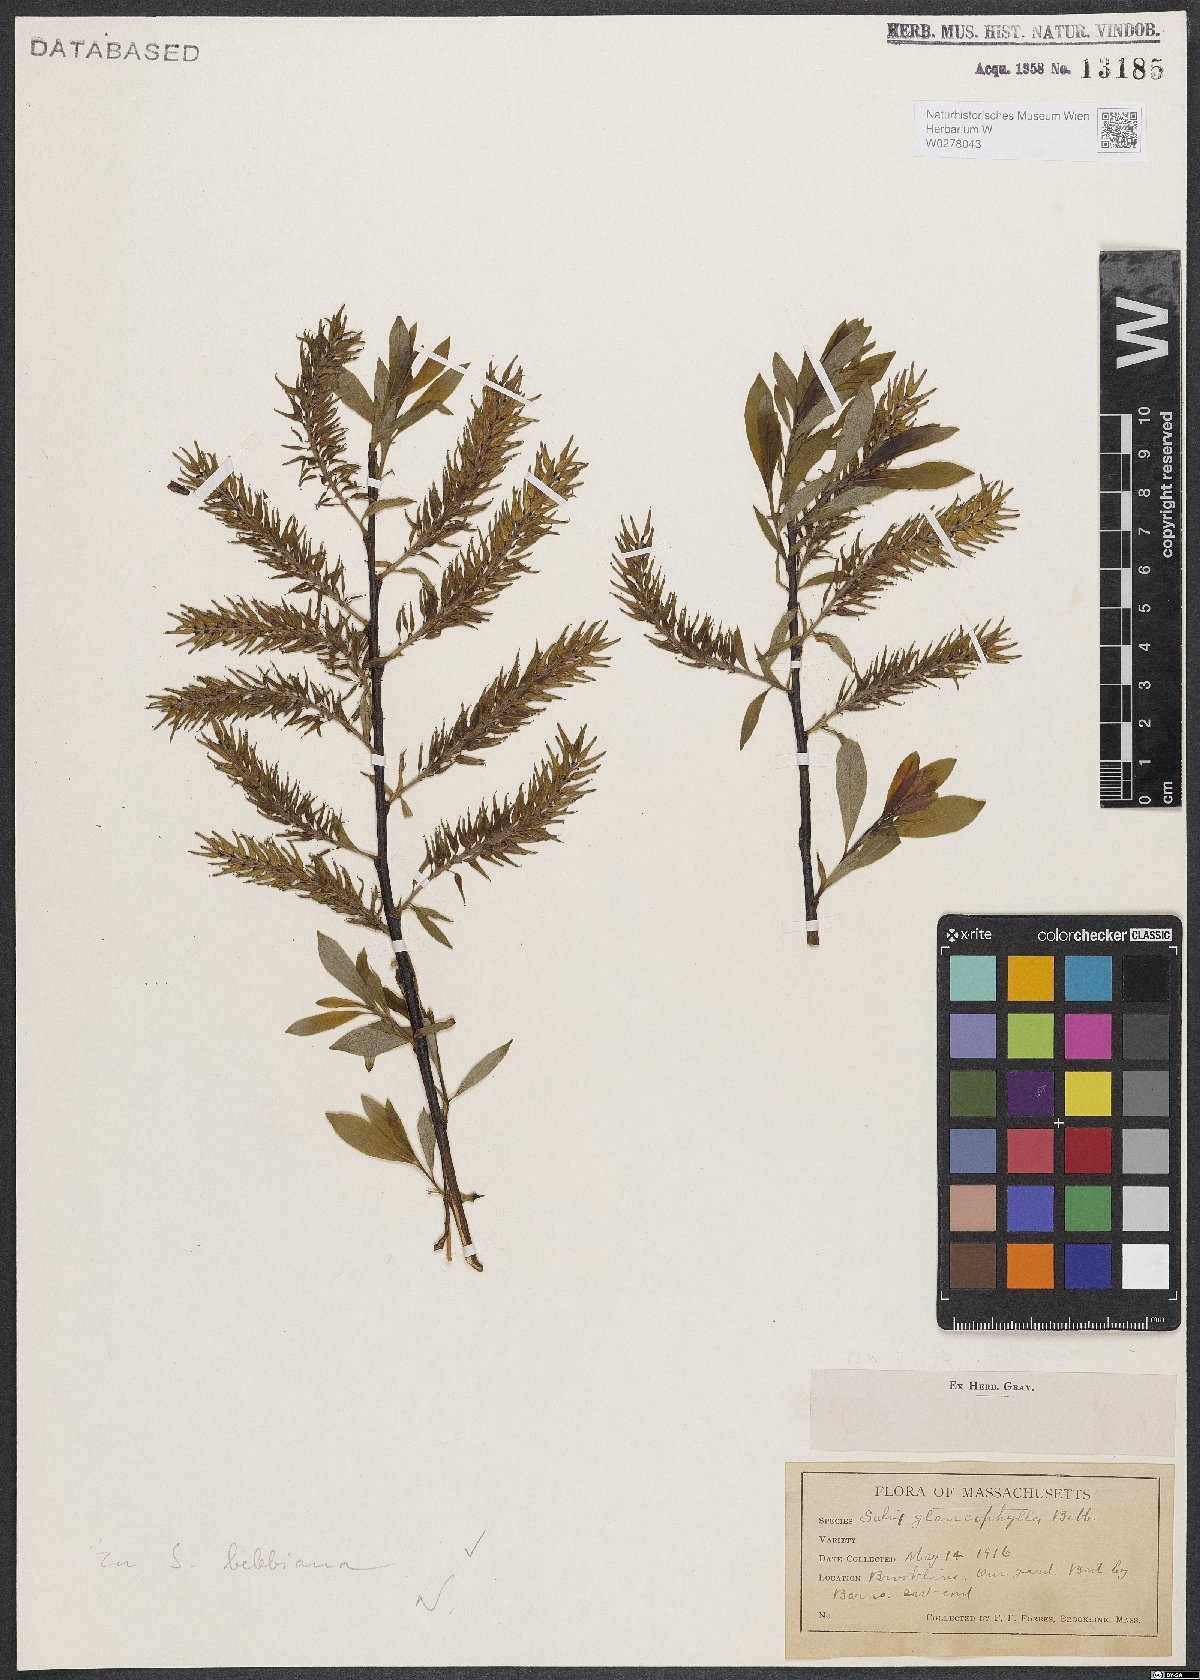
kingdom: Plantae
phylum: Tracheophyta
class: Magnoliopsida
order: Malpighiales
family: Salicaceae
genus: Salix
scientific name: Salix bebbiana
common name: Bebb's willow
